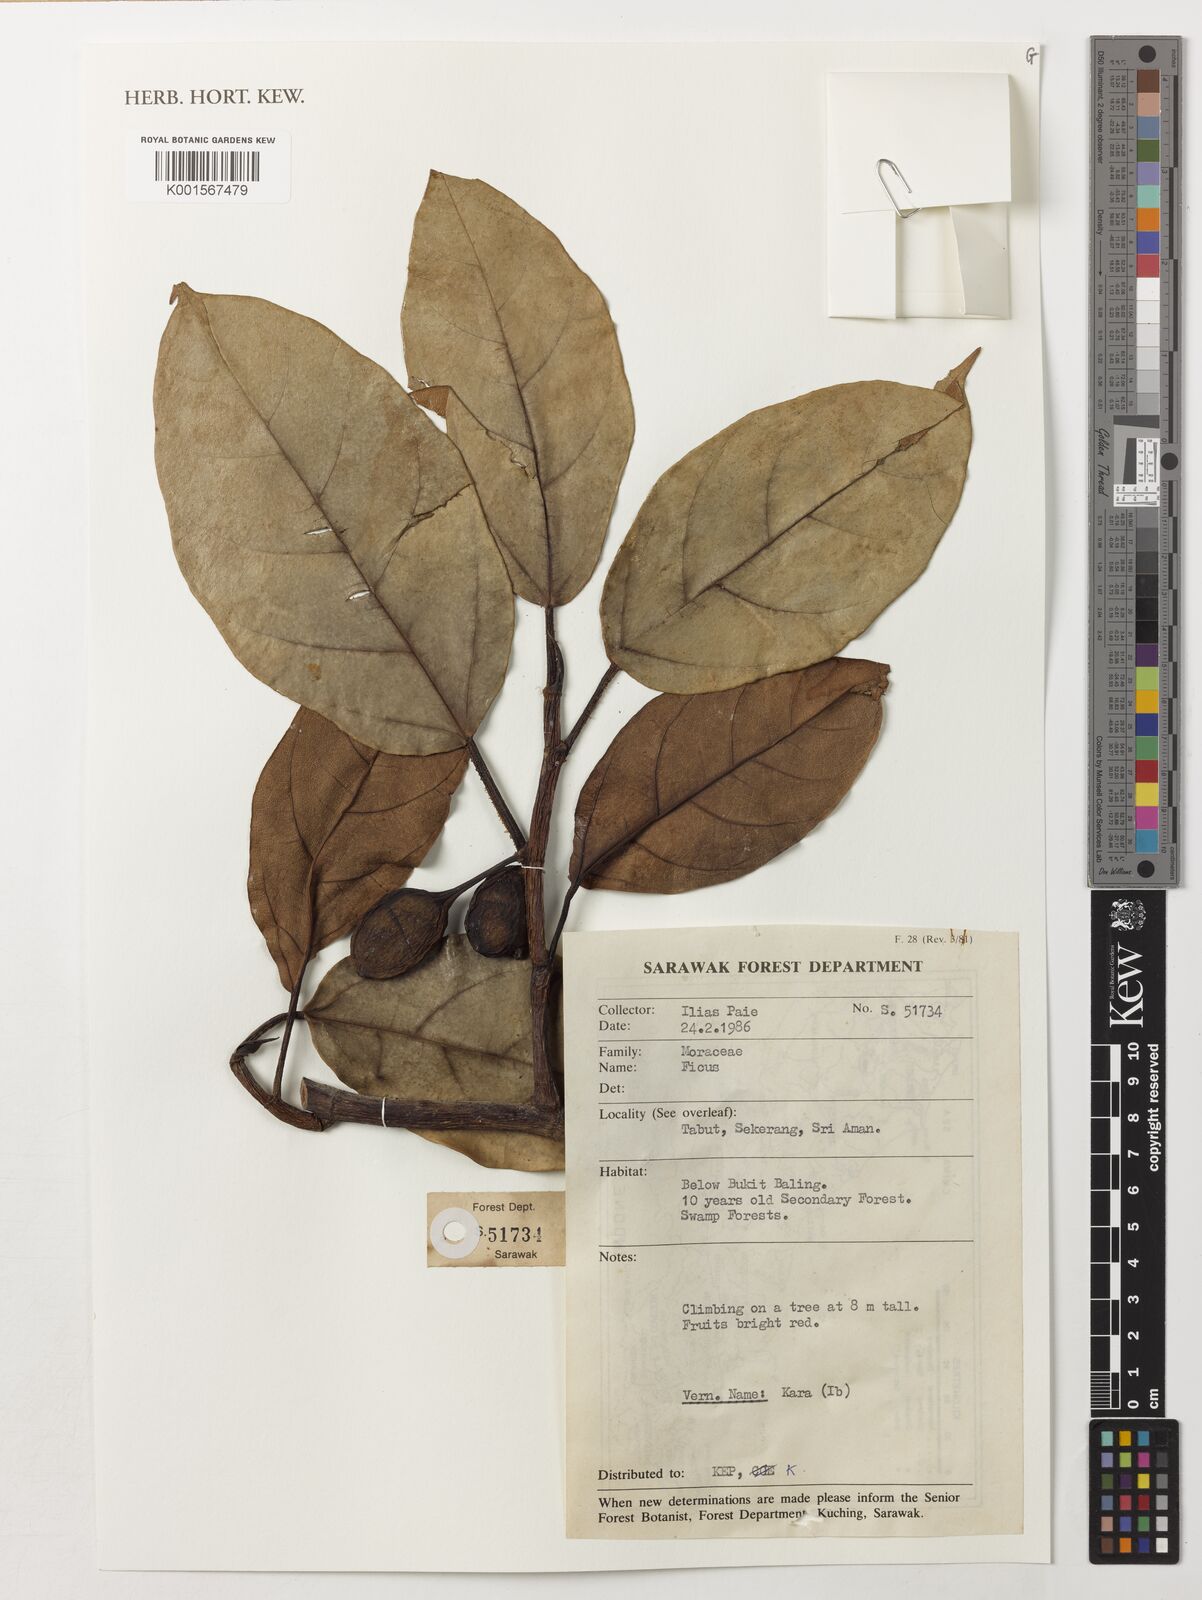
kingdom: Plantae
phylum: Tracheophyta
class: Magnoliopsida
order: Rosales
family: Moraceae
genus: Ficus
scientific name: Ficus
